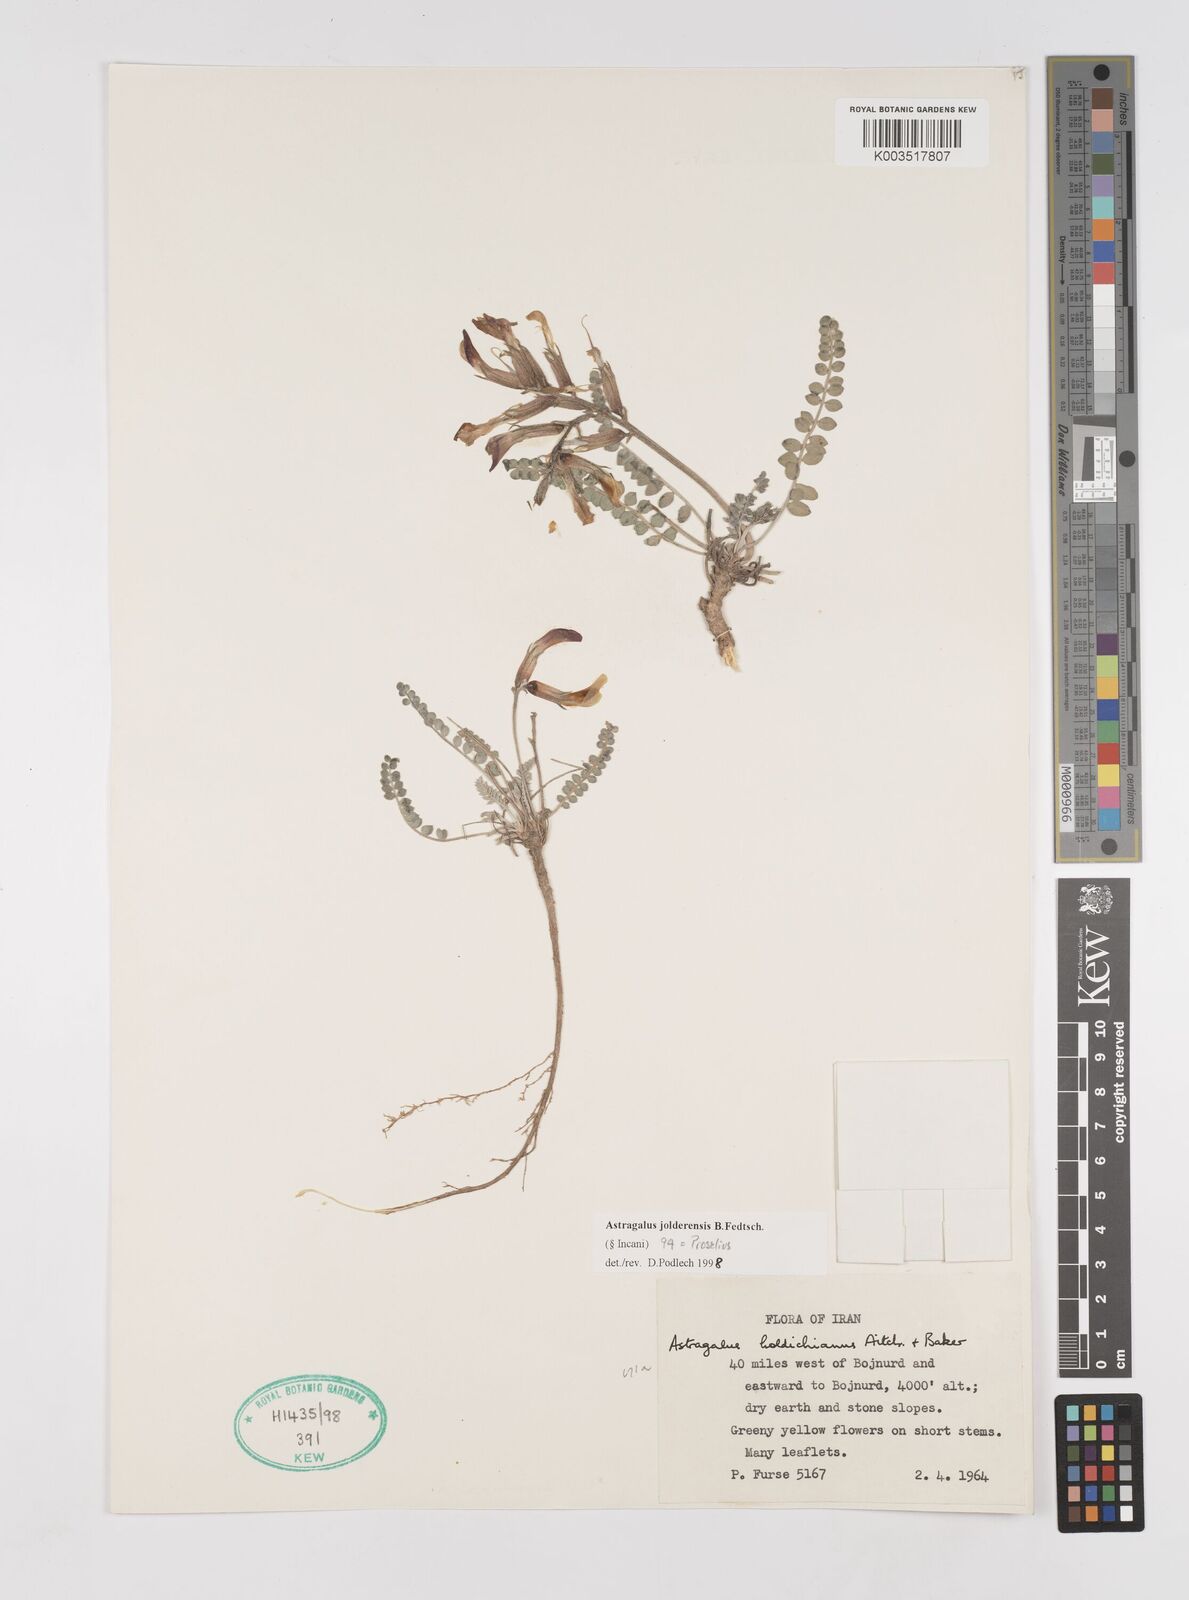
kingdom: Plantae
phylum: Tracheophyta
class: Magnoliopsida
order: Fabales
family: Fabaceae
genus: Astragalus
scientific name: Astragalus jolderensis
